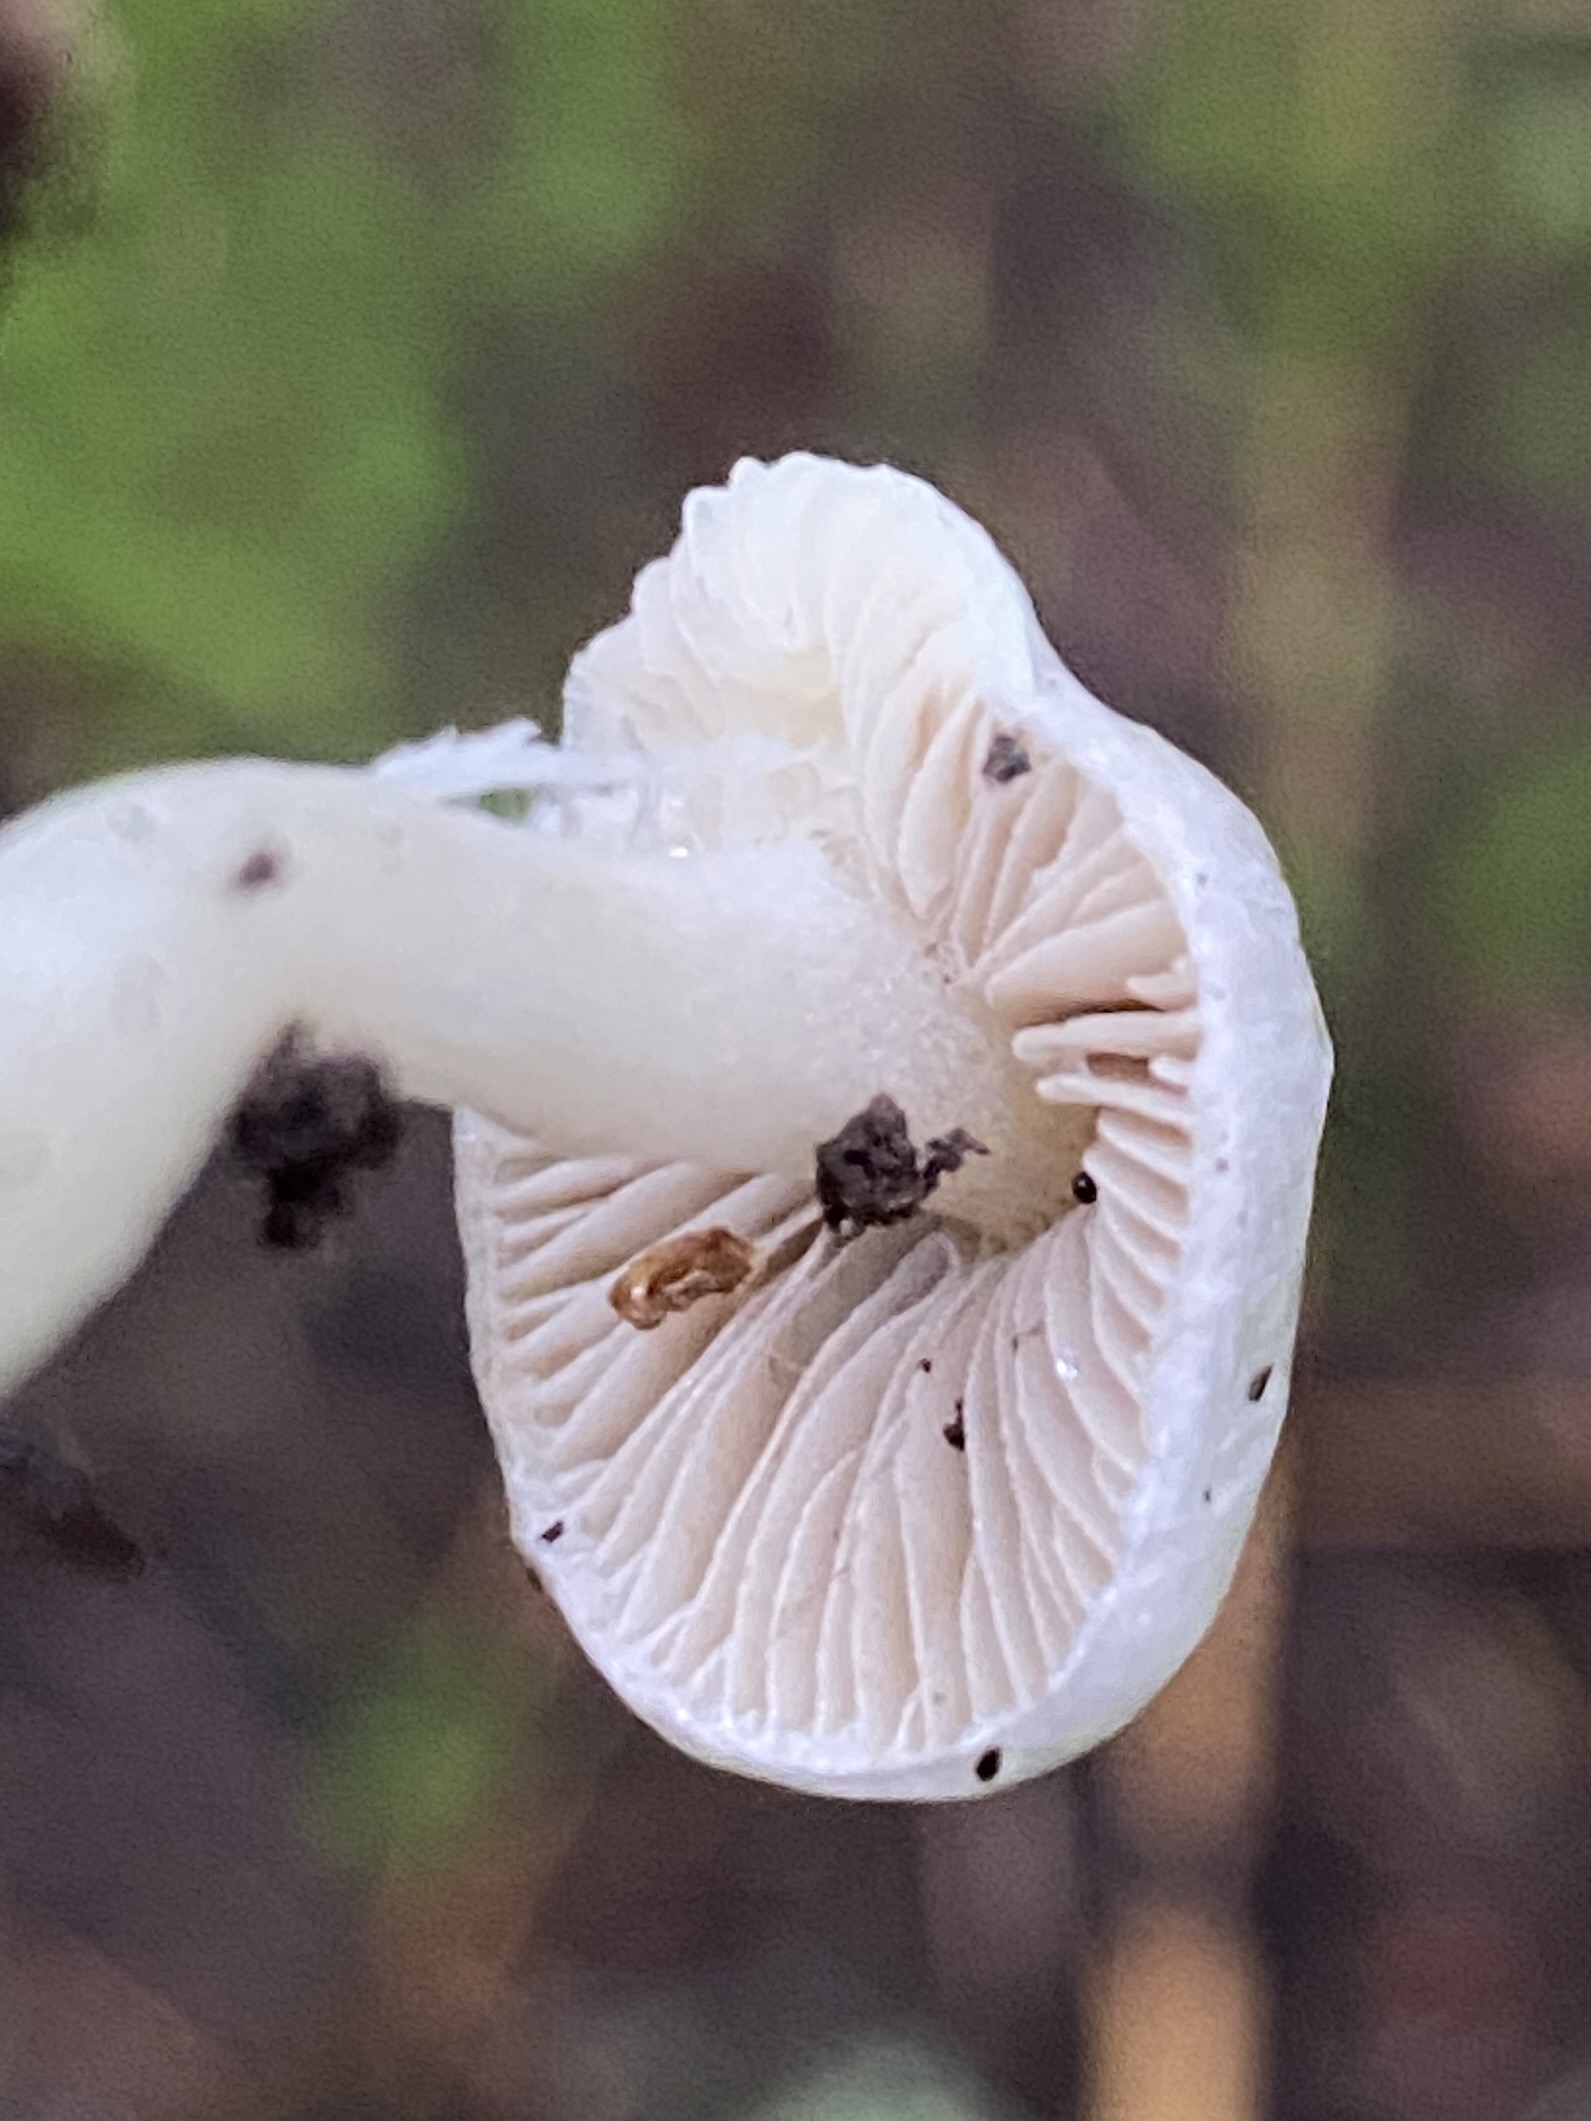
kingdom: Fungi
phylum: Basidiomycota
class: Agaricomycetes
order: Agaricales
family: Inocybaceae
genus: Inocybe
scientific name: Inocybe
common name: almindelig trævlhat
